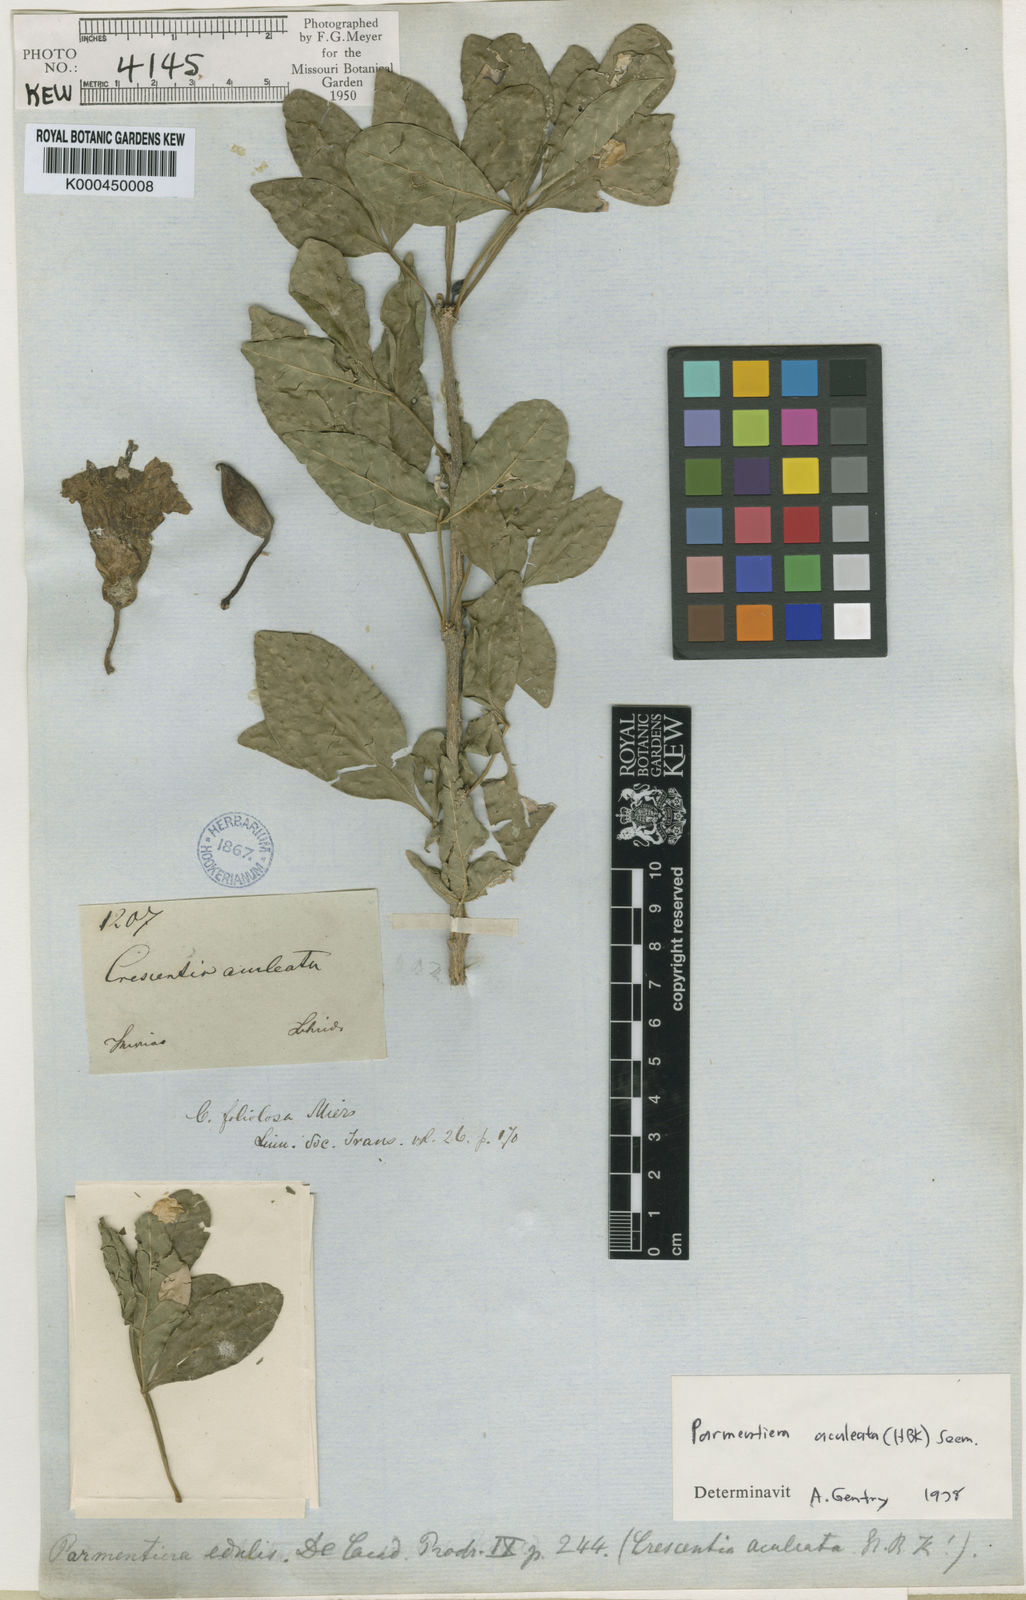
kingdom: Plantae
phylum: Tracheophyta
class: Magnoliopsida
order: Lamiales
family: Bignoniaceae
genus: Parmentiera
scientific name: Parmentiera aculeata
